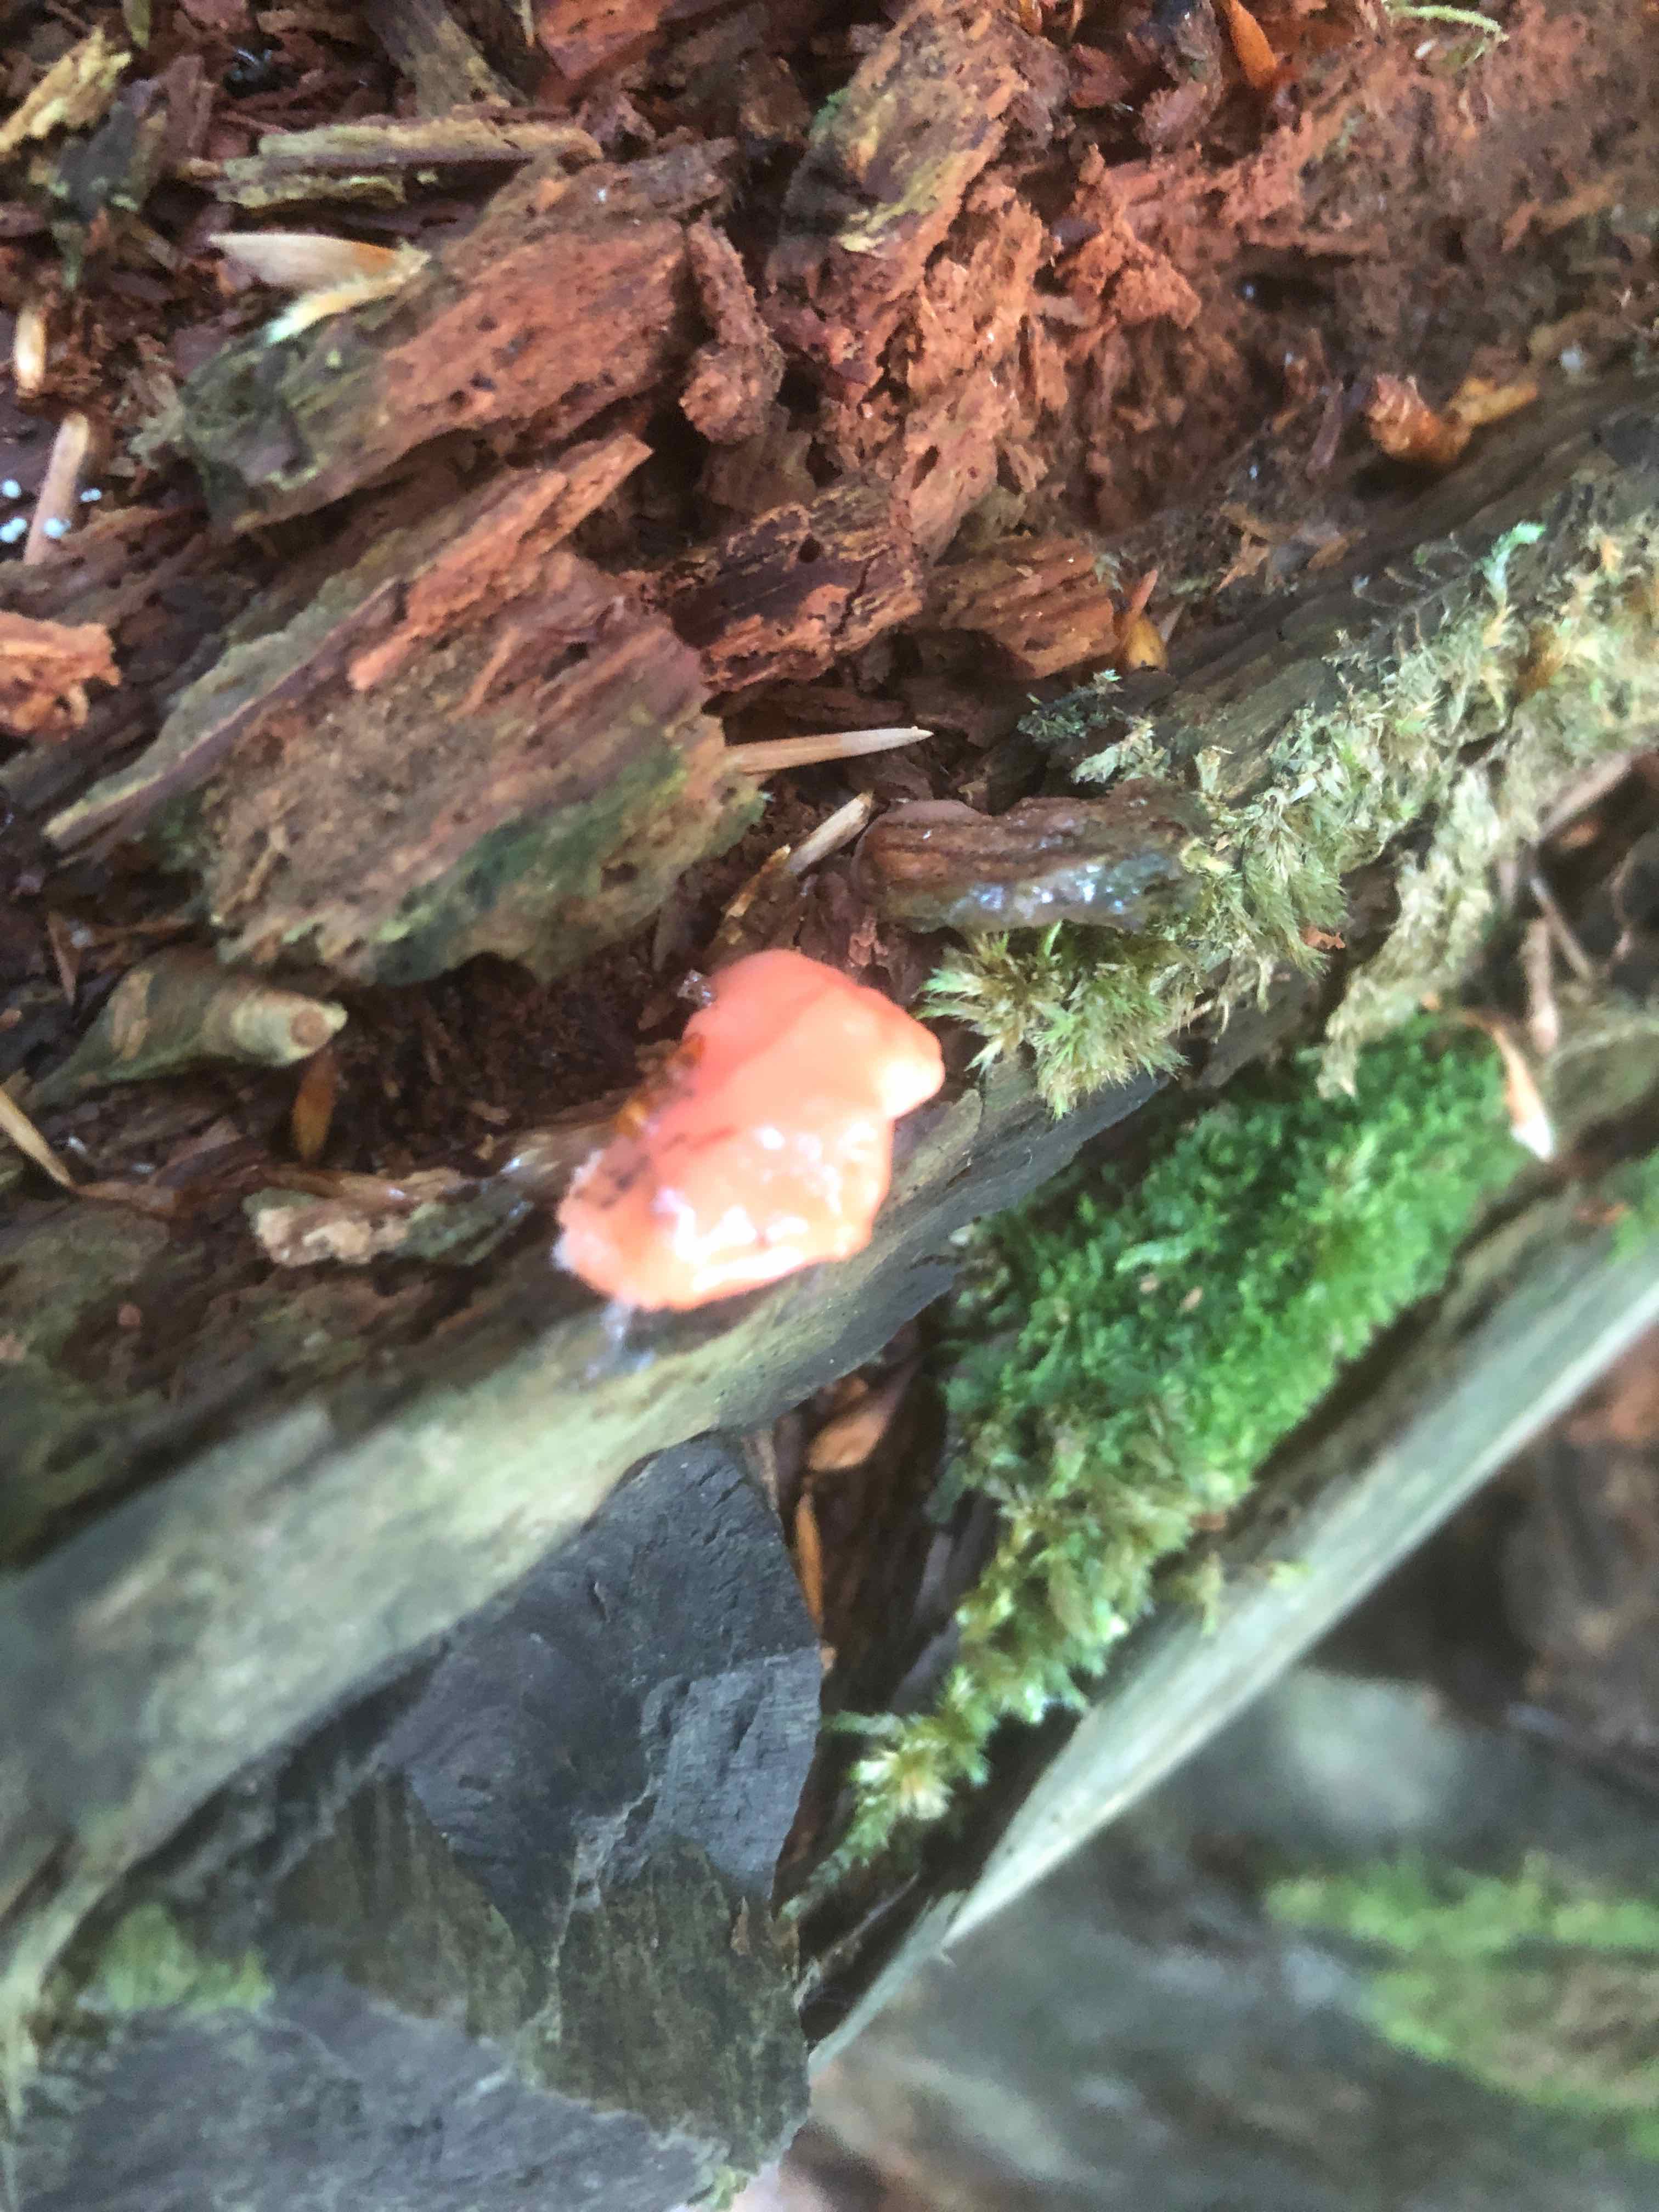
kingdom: Fungi
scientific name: Fungi
